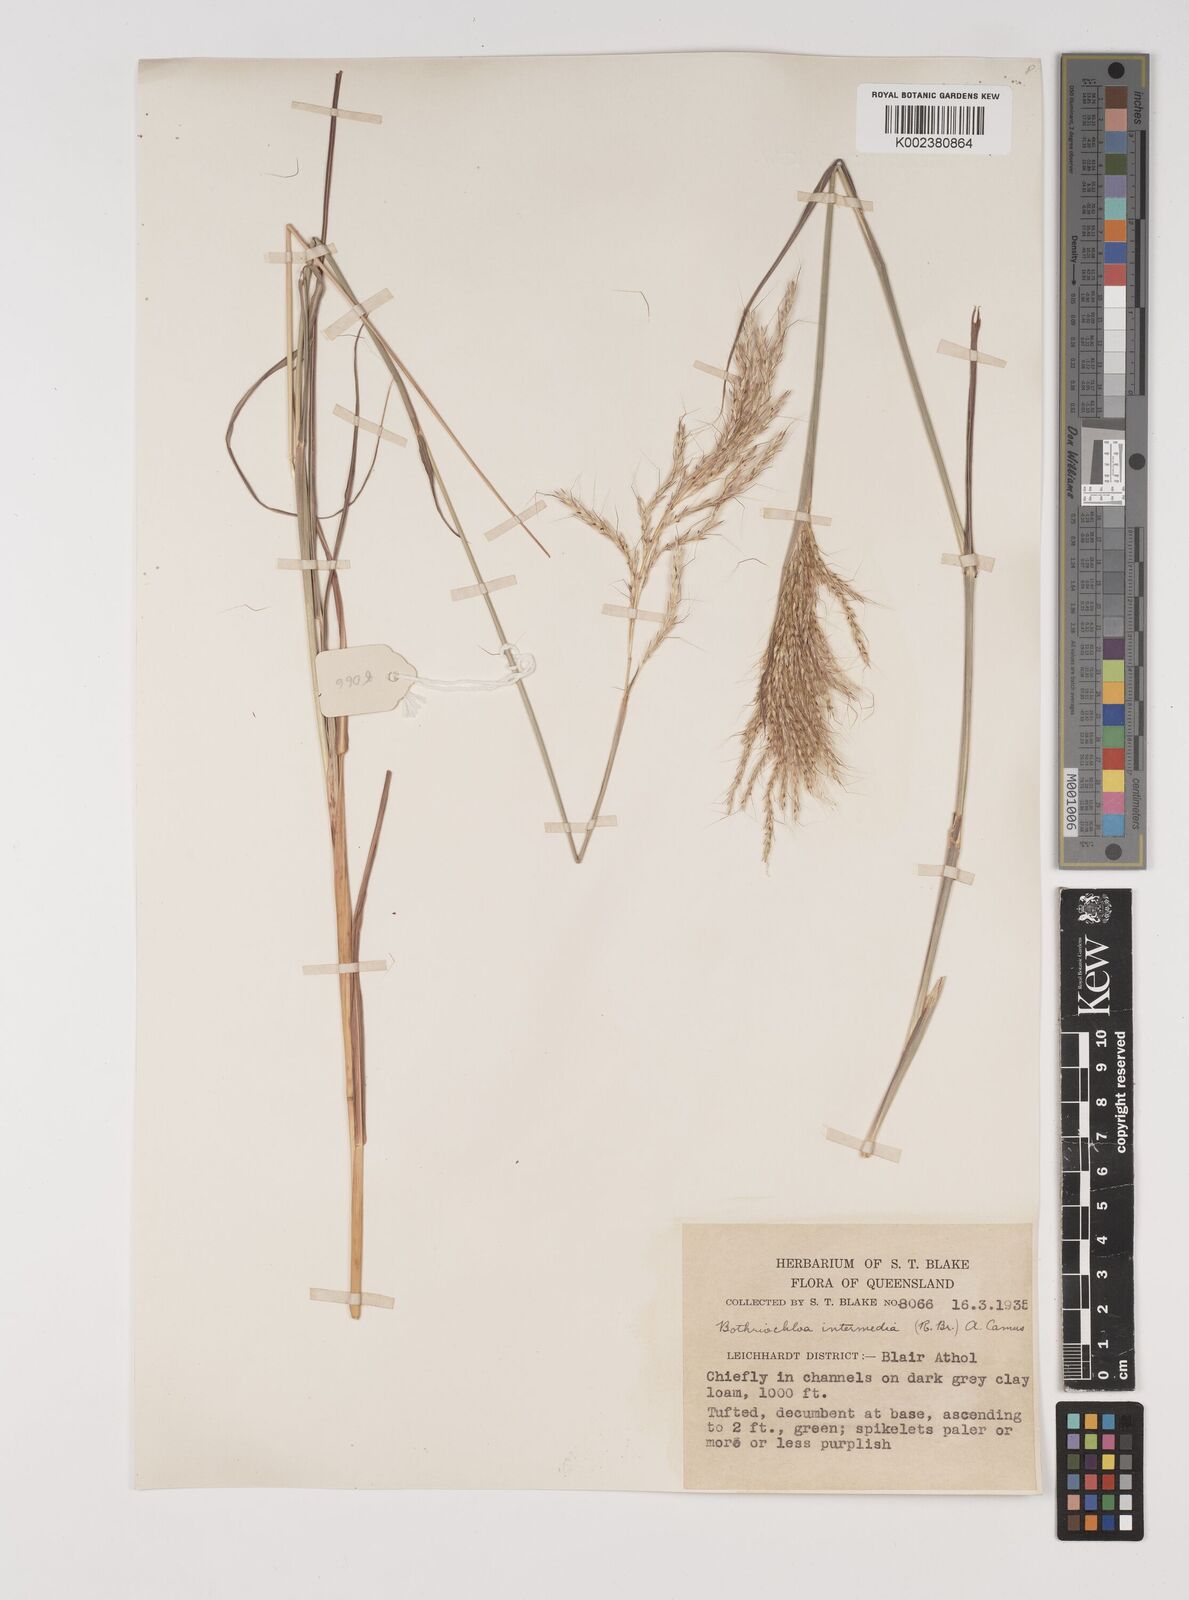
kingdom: Plantae
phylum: Tracheophyta
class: Liliopsida
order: Poales
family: Poaceae
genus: Bothriochloa
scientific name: Bothriochloa bladhii
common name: Caucasian bluestem
